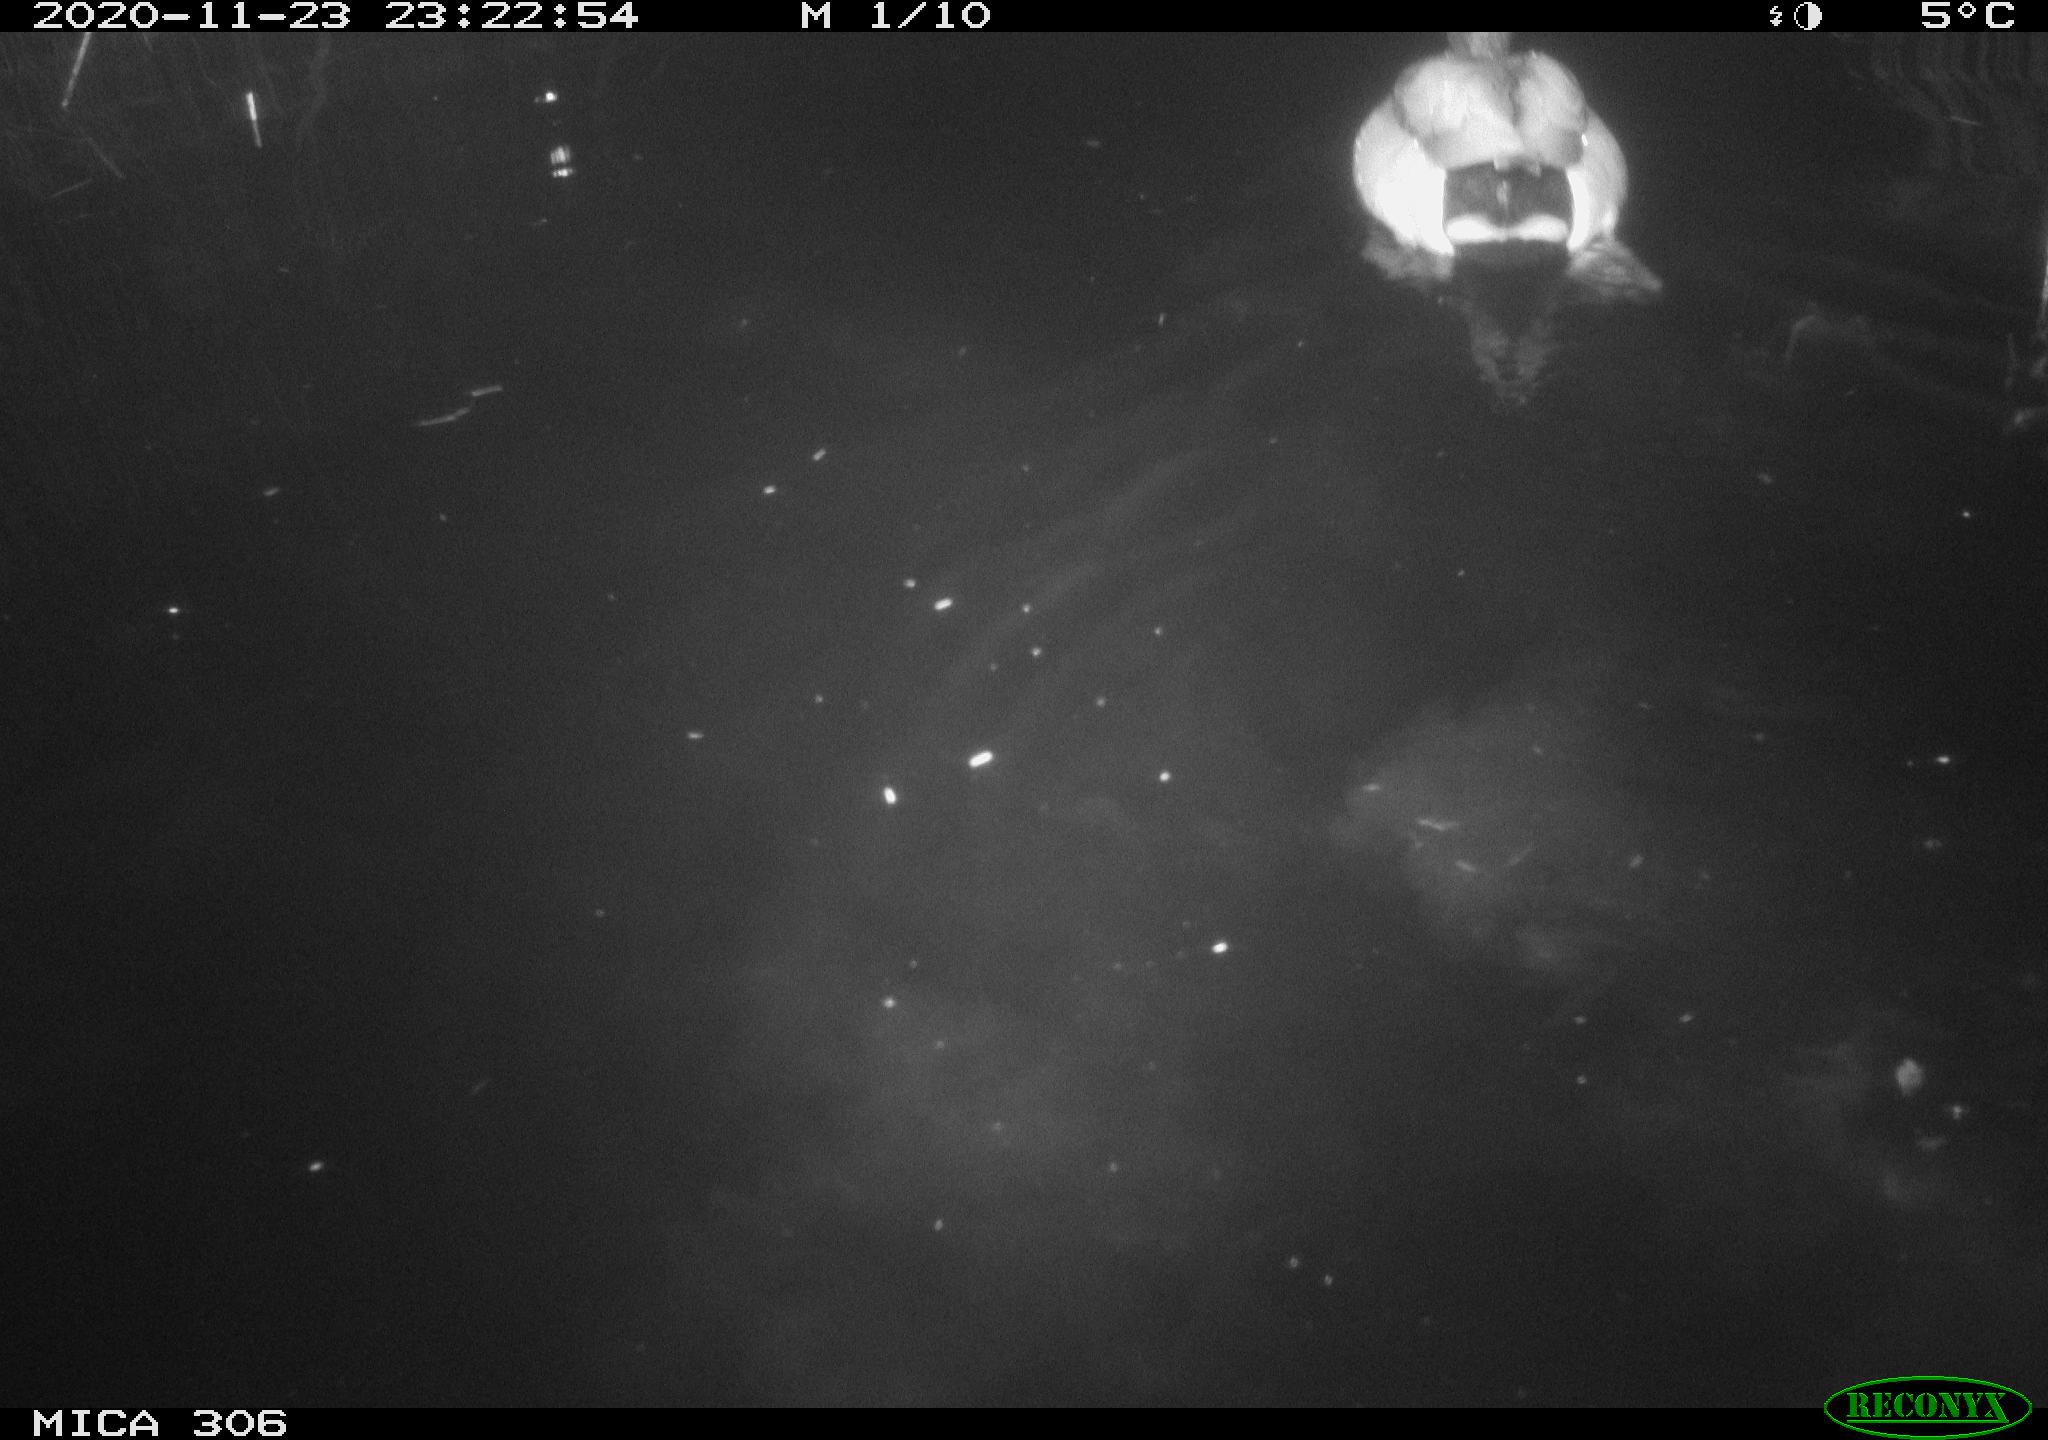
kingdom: Animalia
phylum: Chordata
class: Aves
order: Anseriformes
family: Anatidae
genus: Anas
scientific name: Anas platyrhynchos
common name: Mallard
